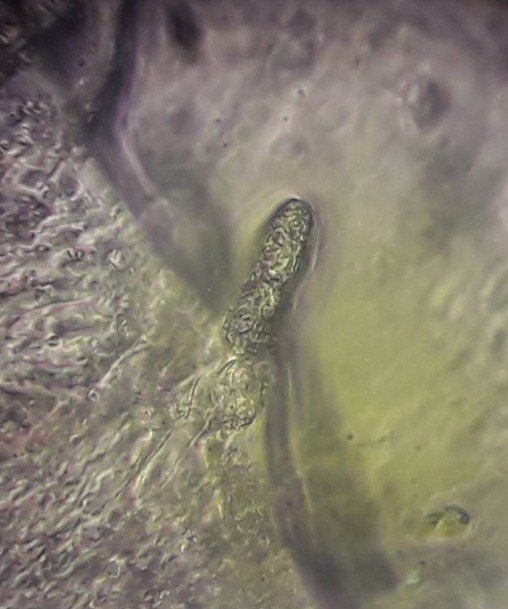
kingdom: Fungi
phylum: Basidiomycota
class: Agaricomycetes
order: Hymenochaetales
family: Rickenellaceae
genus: Peniophorella
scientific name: Peniophorella pubera
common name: dunet kalkskind
